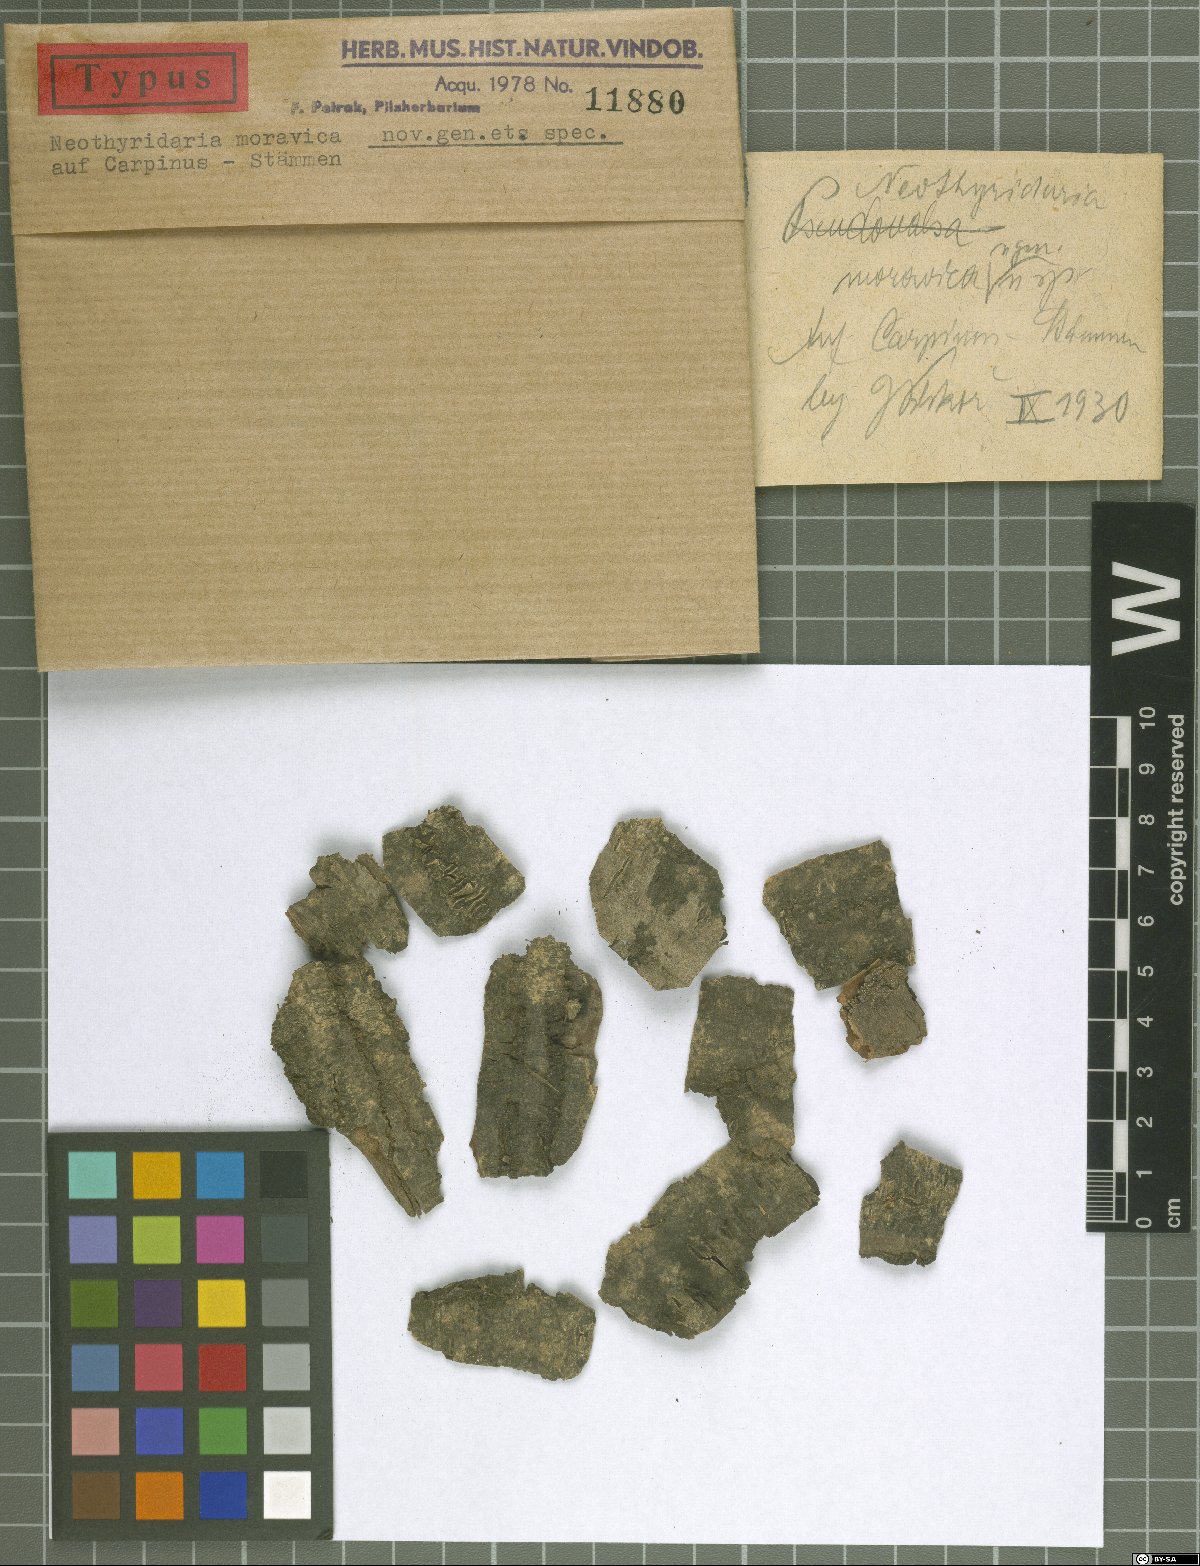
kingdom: Fungi
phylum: Ascomycota
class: Sordariomycetes
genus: Neothyridaria
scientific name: Neothyridaria moravica
